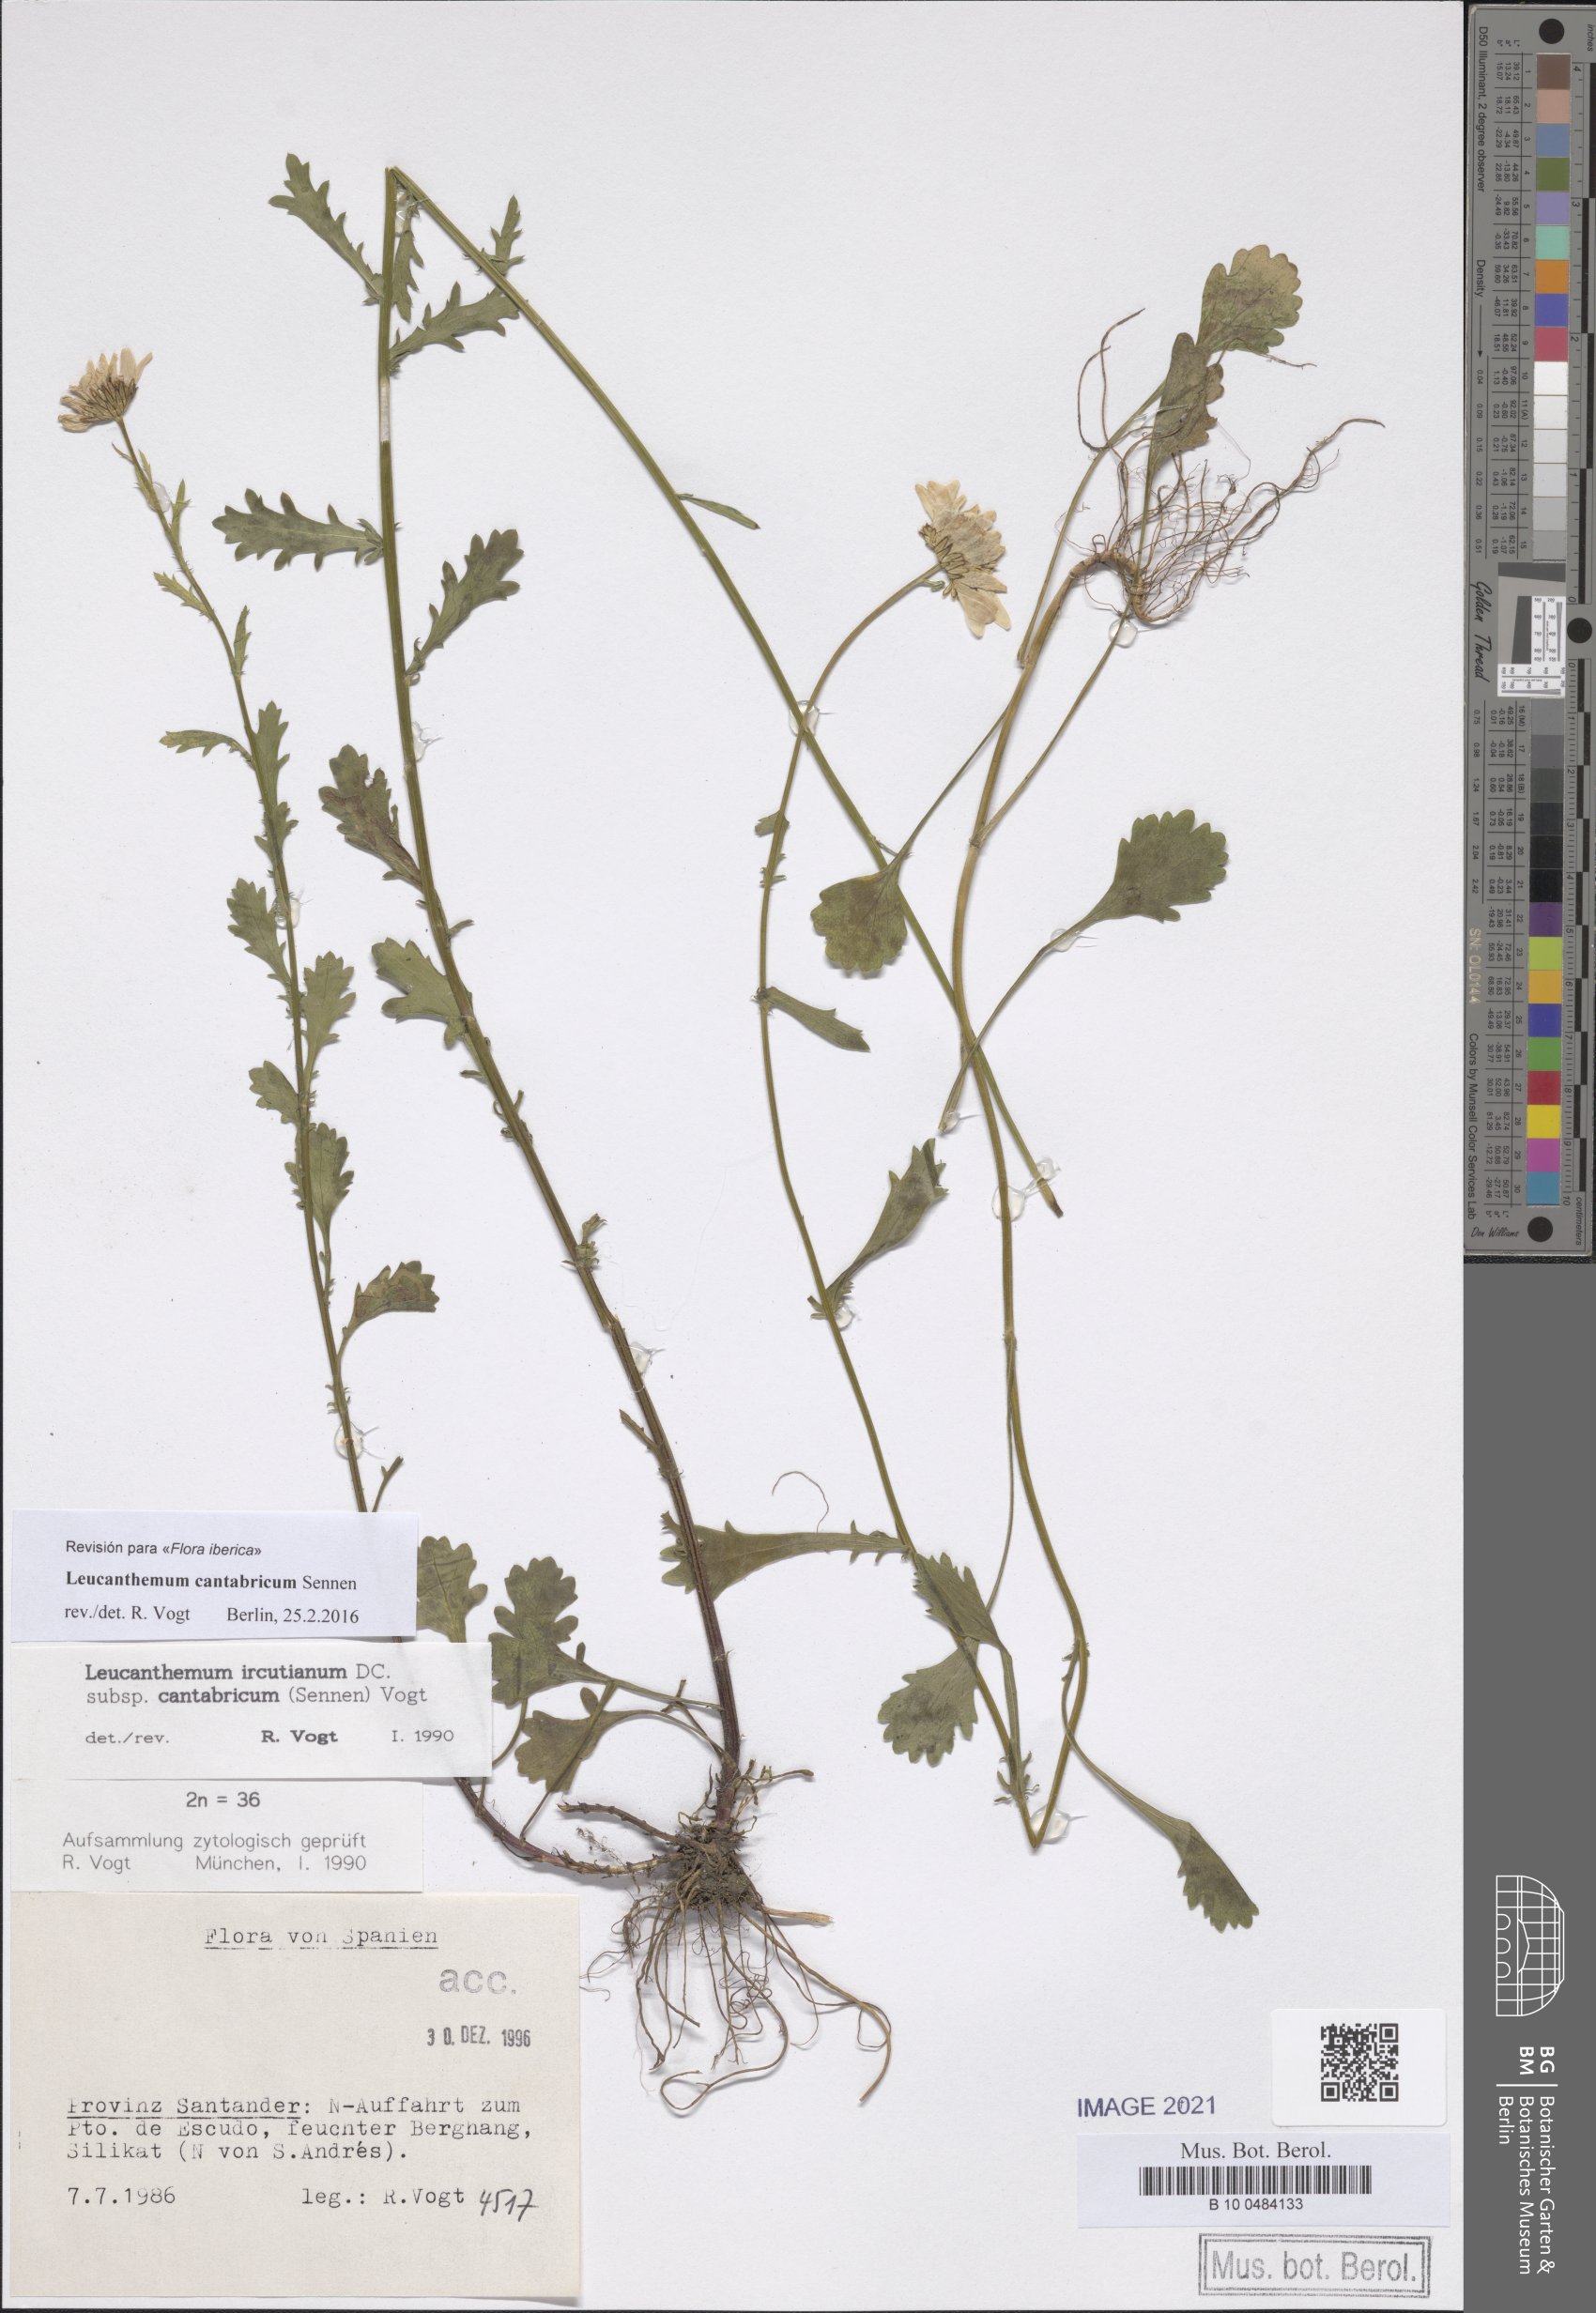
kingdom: Plantae
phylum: Tracheophyta
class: Magnoliopsida
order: Asterales
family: Asteraceae
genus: Leucanthemum
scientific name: Leucanthemum cantabricum
